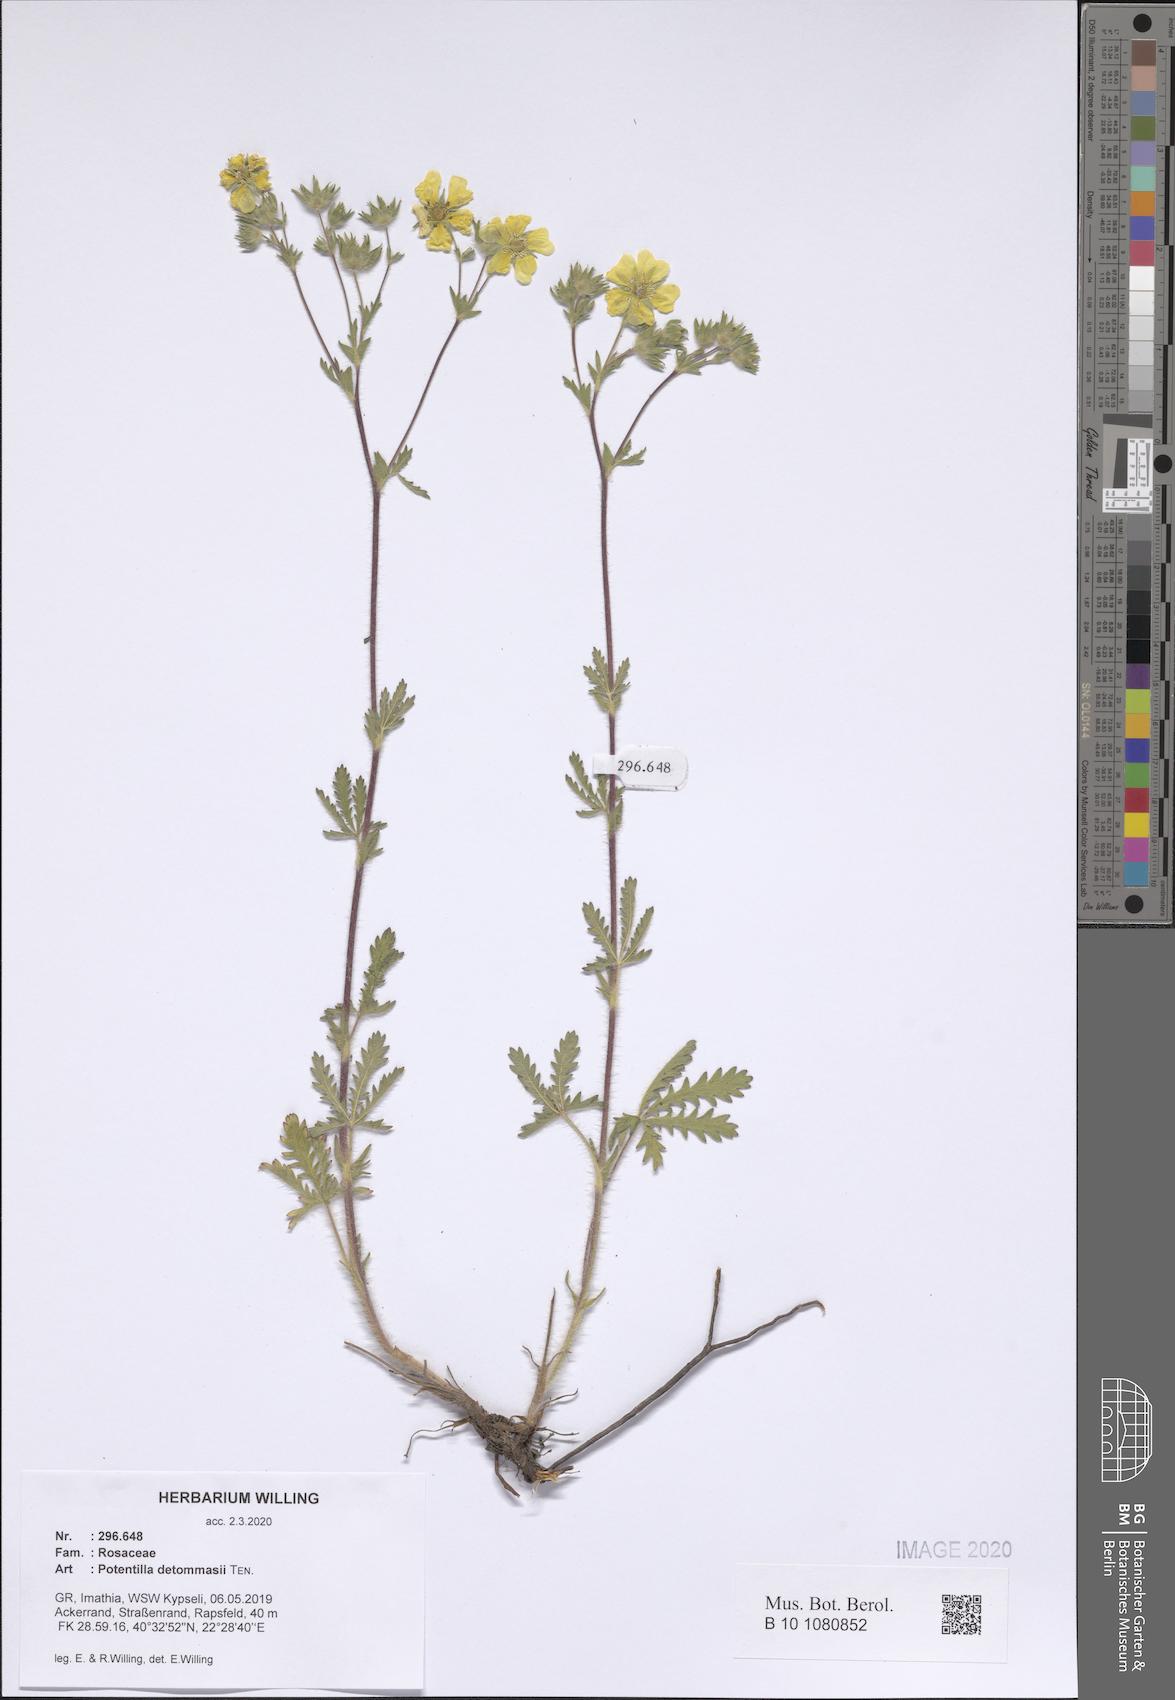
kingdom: Plantae
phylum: Tracheophyta
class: Magnoliopsida
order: Rosales
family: Rosaceae
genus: Potentilla
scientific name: Potentilla detommasii
